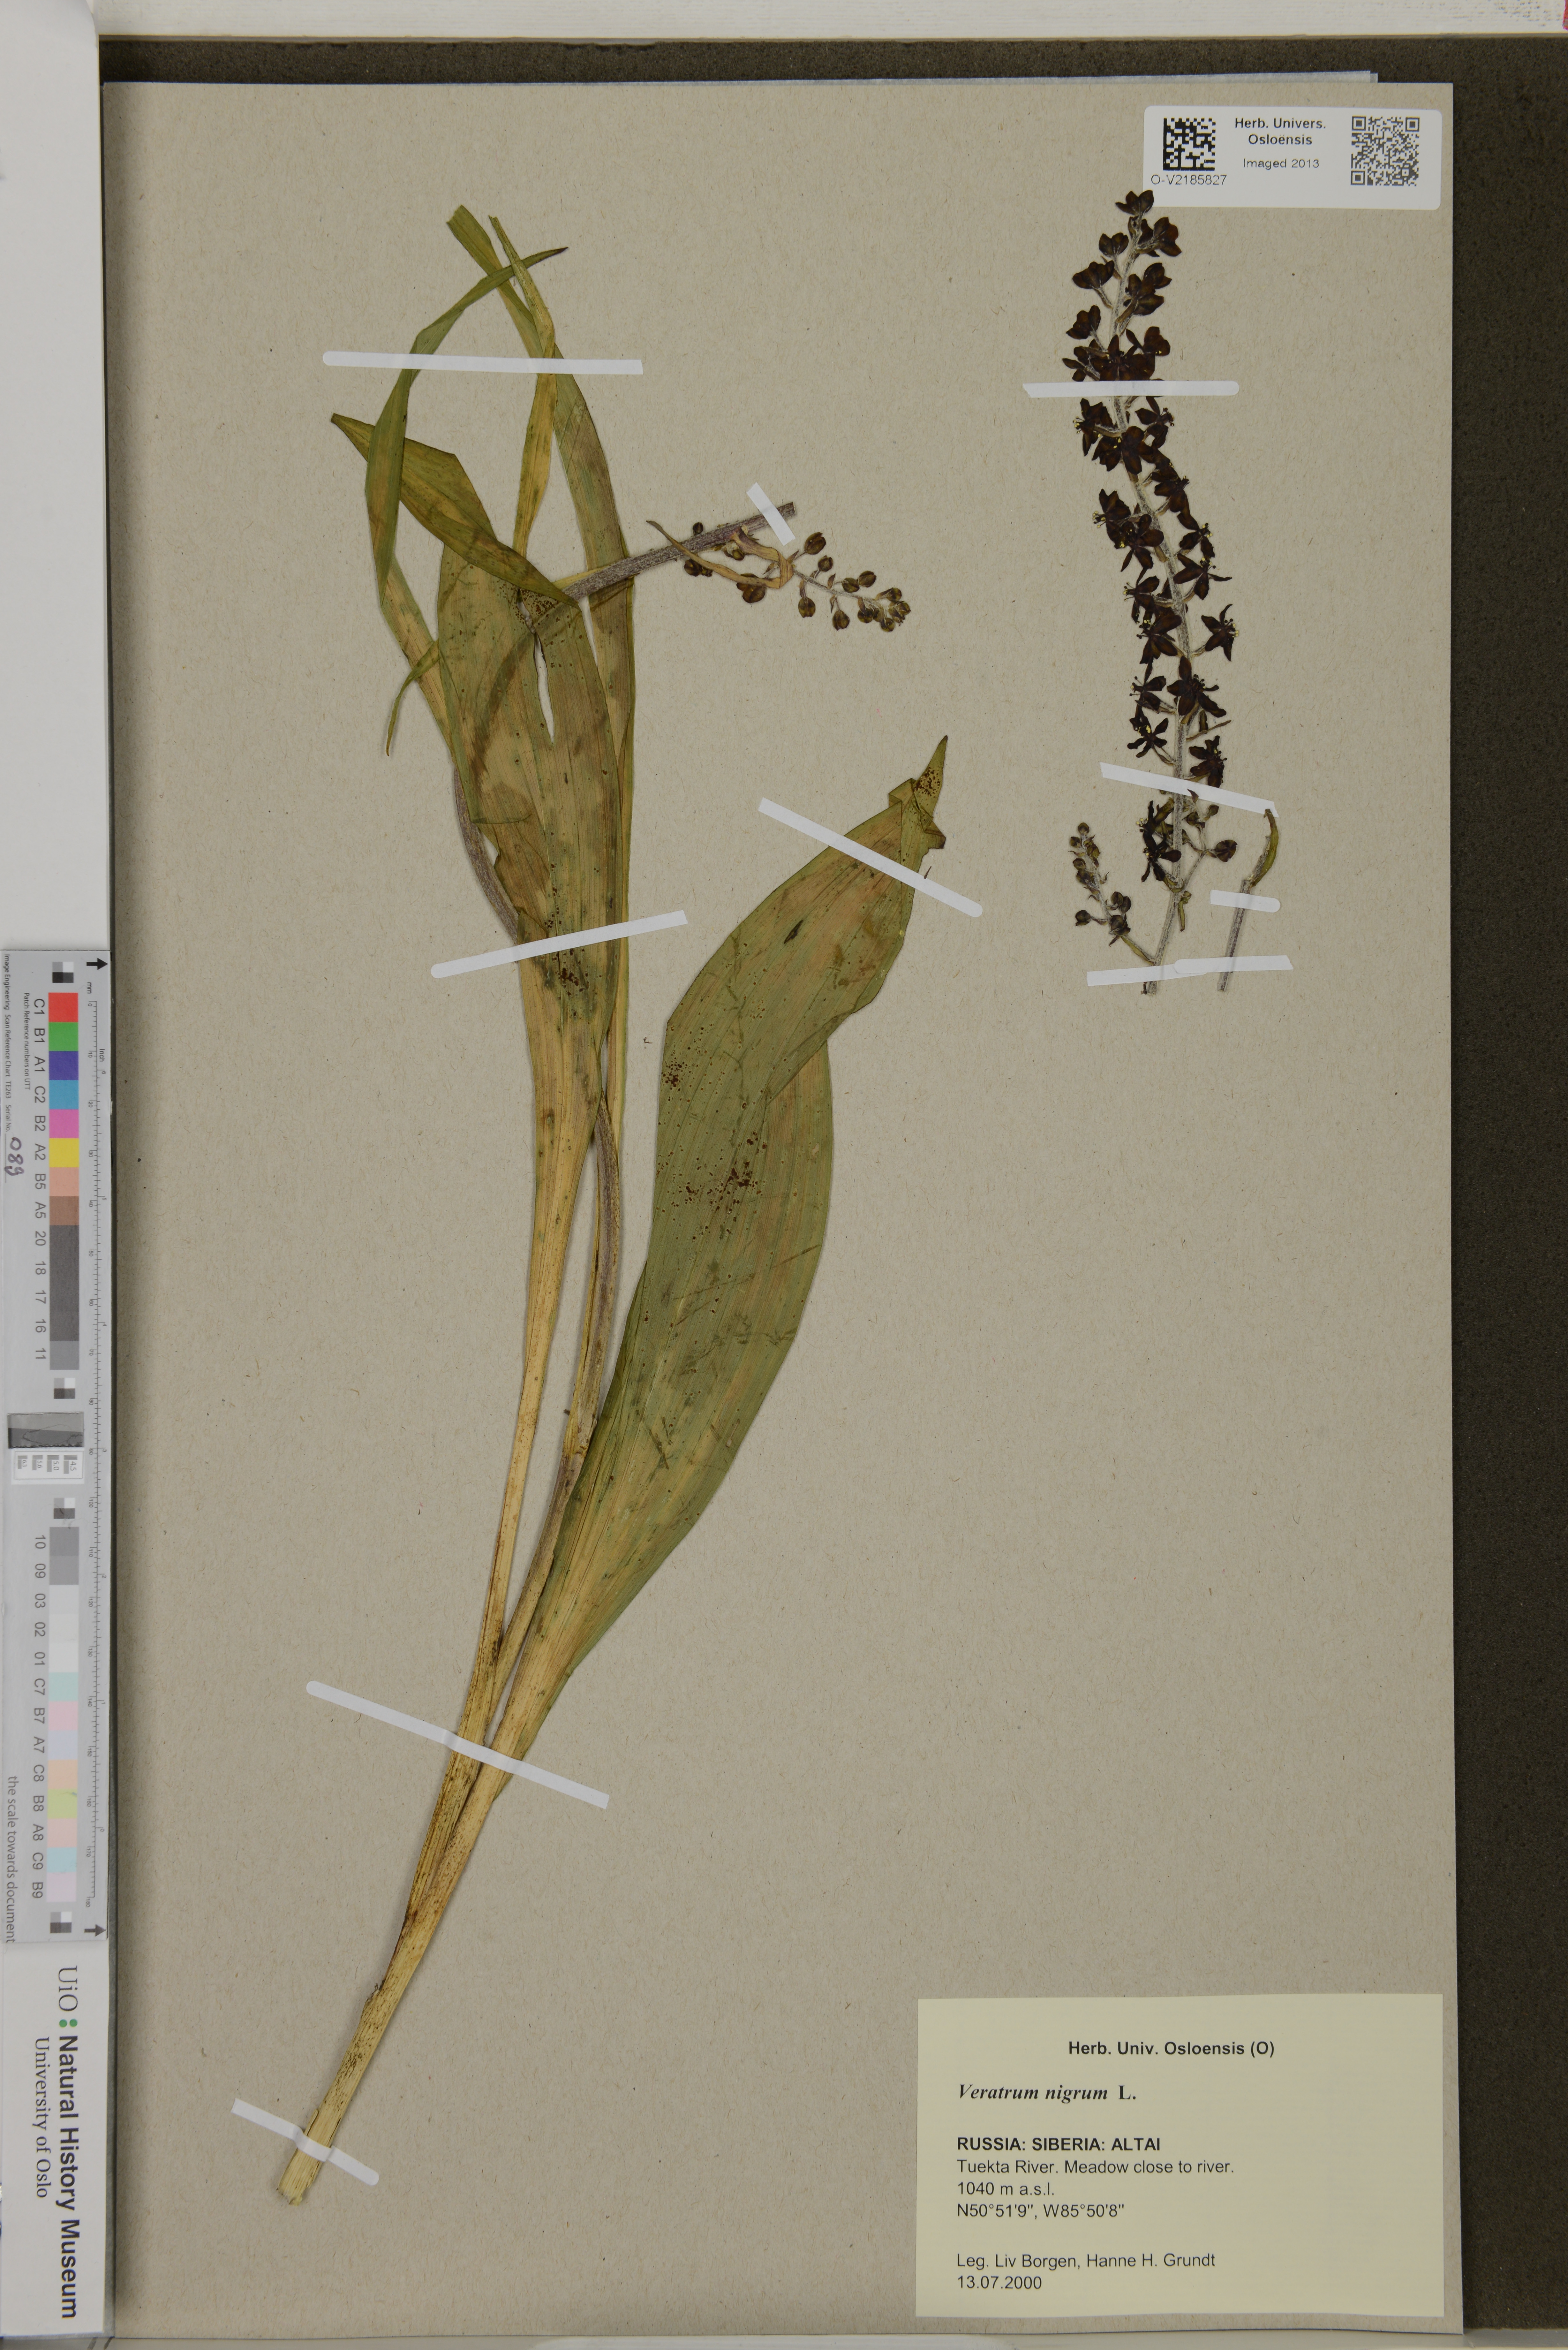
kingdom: Plantae
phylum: Tracheophyta
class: Liliopsida
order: Liliales
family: Melanthiaceae
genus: Veratrum
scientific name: Veratrum nigrum
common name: Black veratrum
